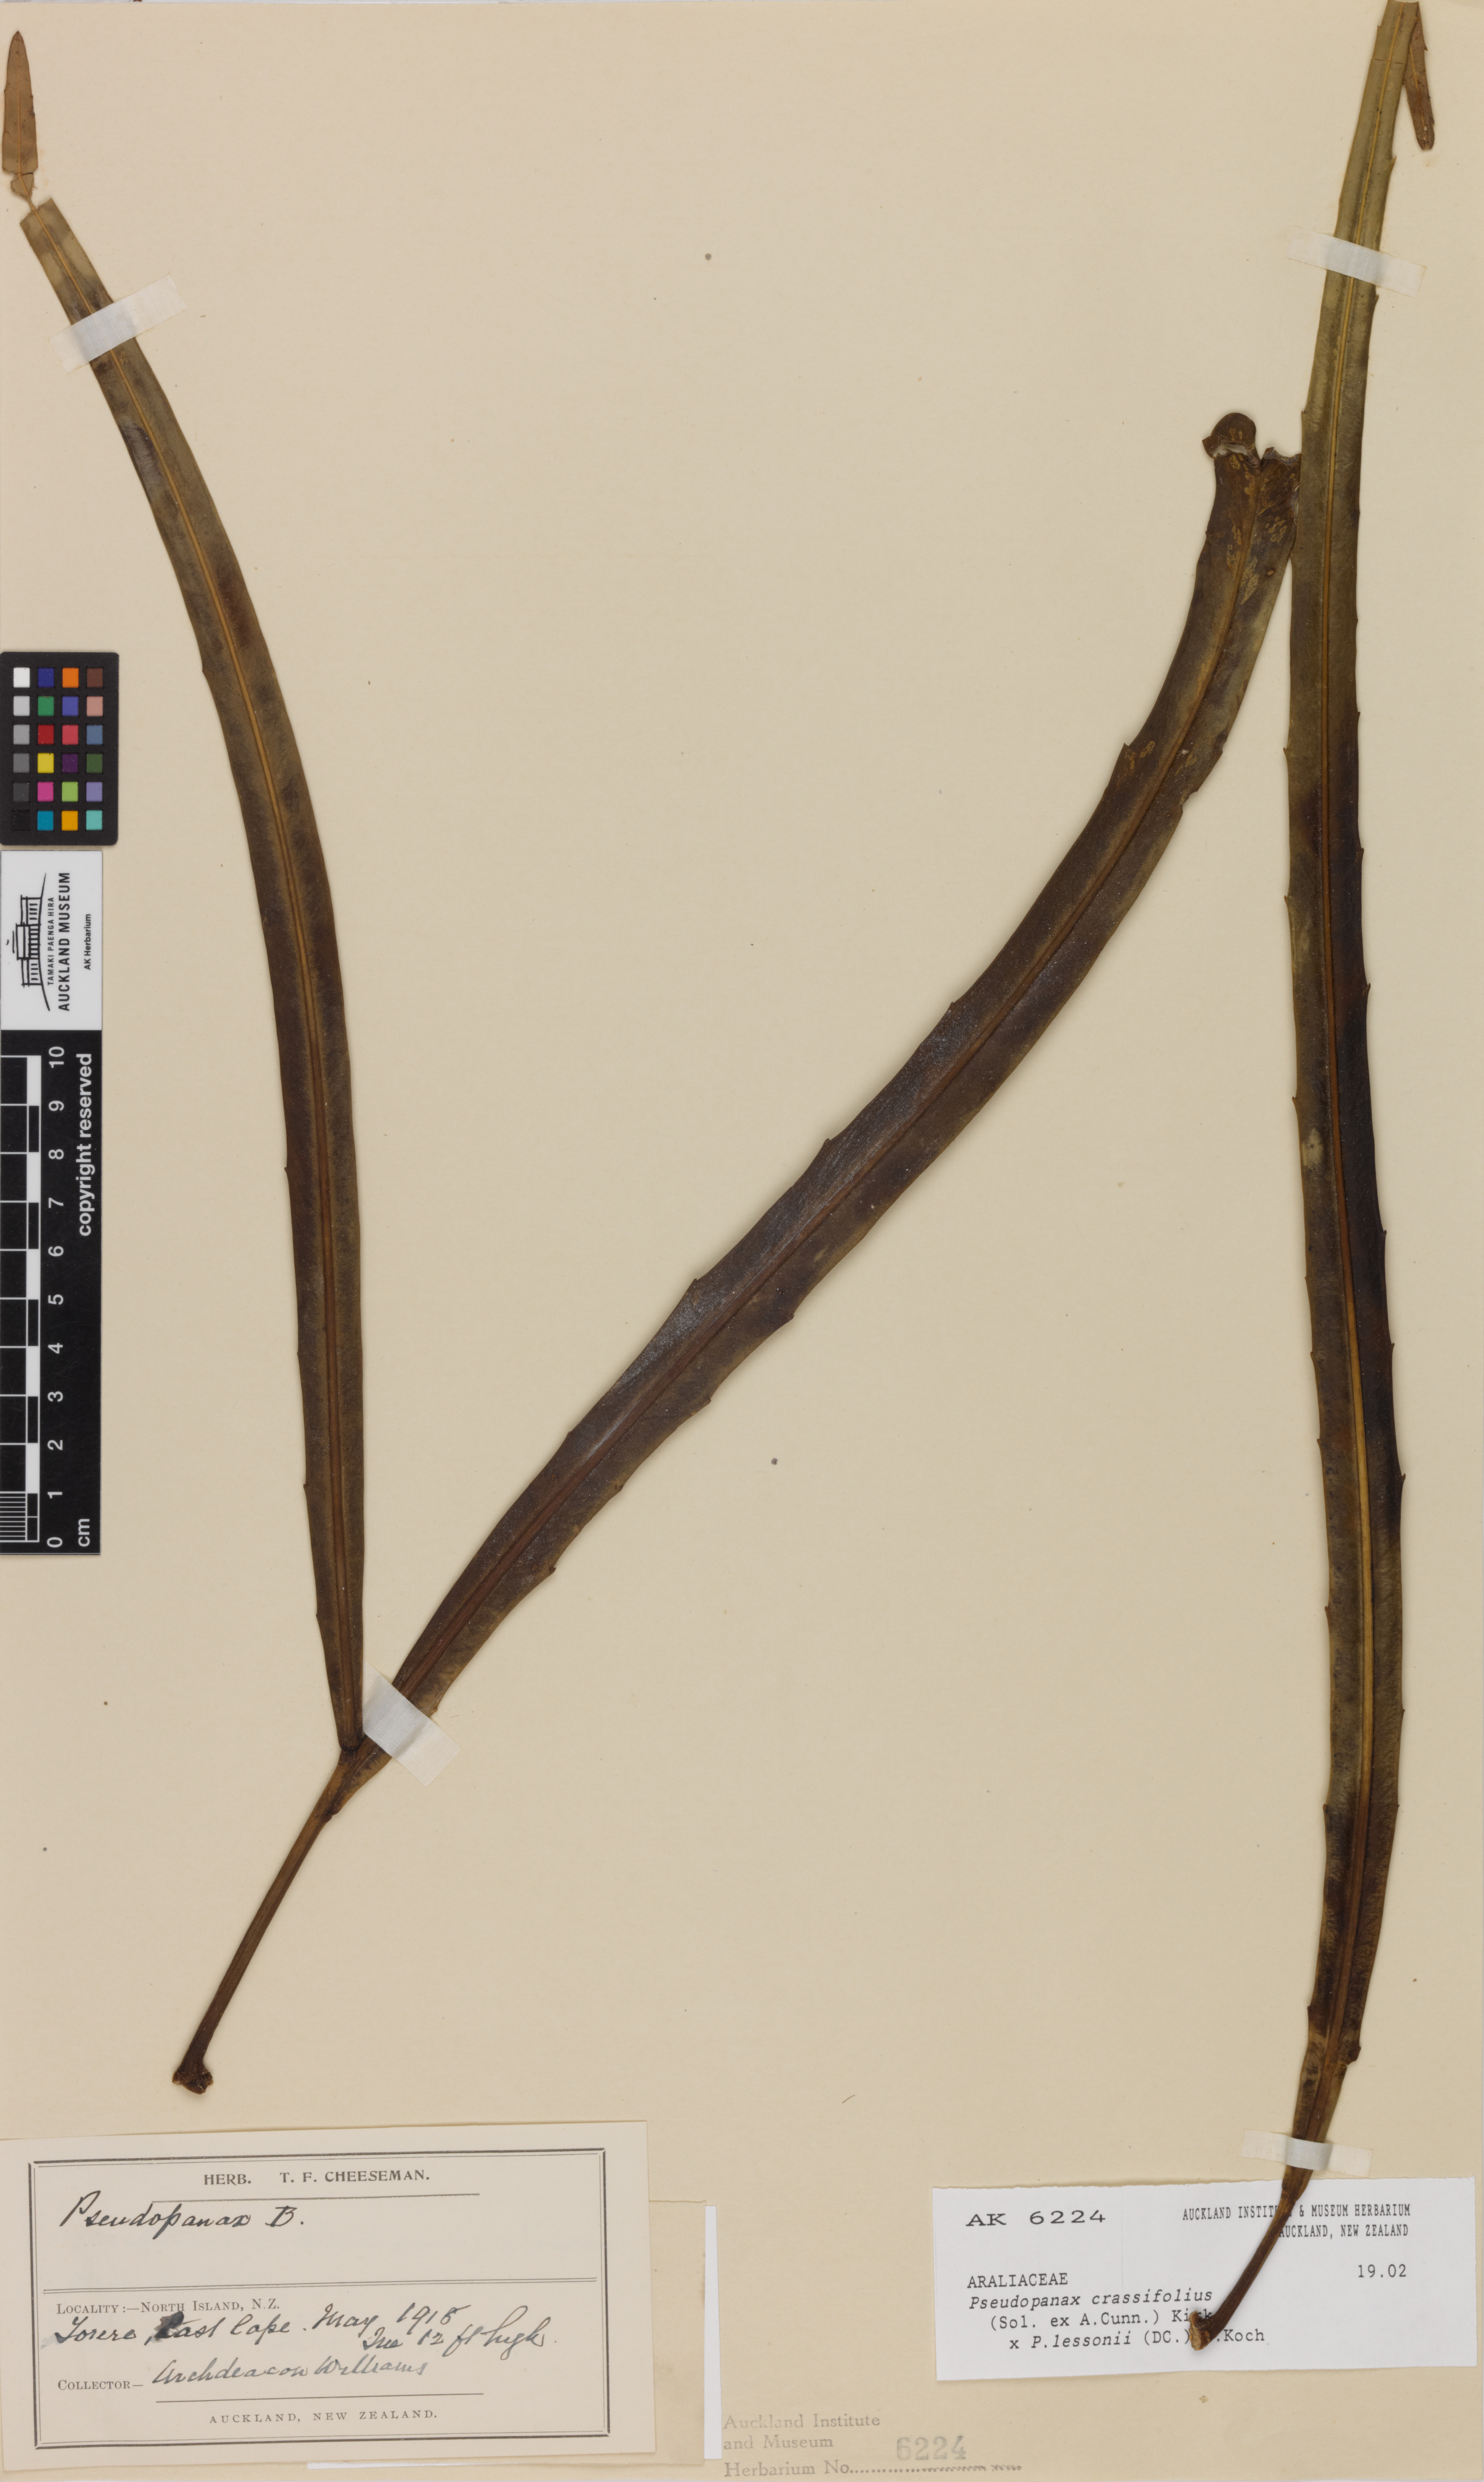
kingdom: Plantae
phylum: Tracheophyta
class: Magnoliopsida
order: Apiales
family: Araliaceae
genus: Pseudopanax
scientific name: Pseudopanax
